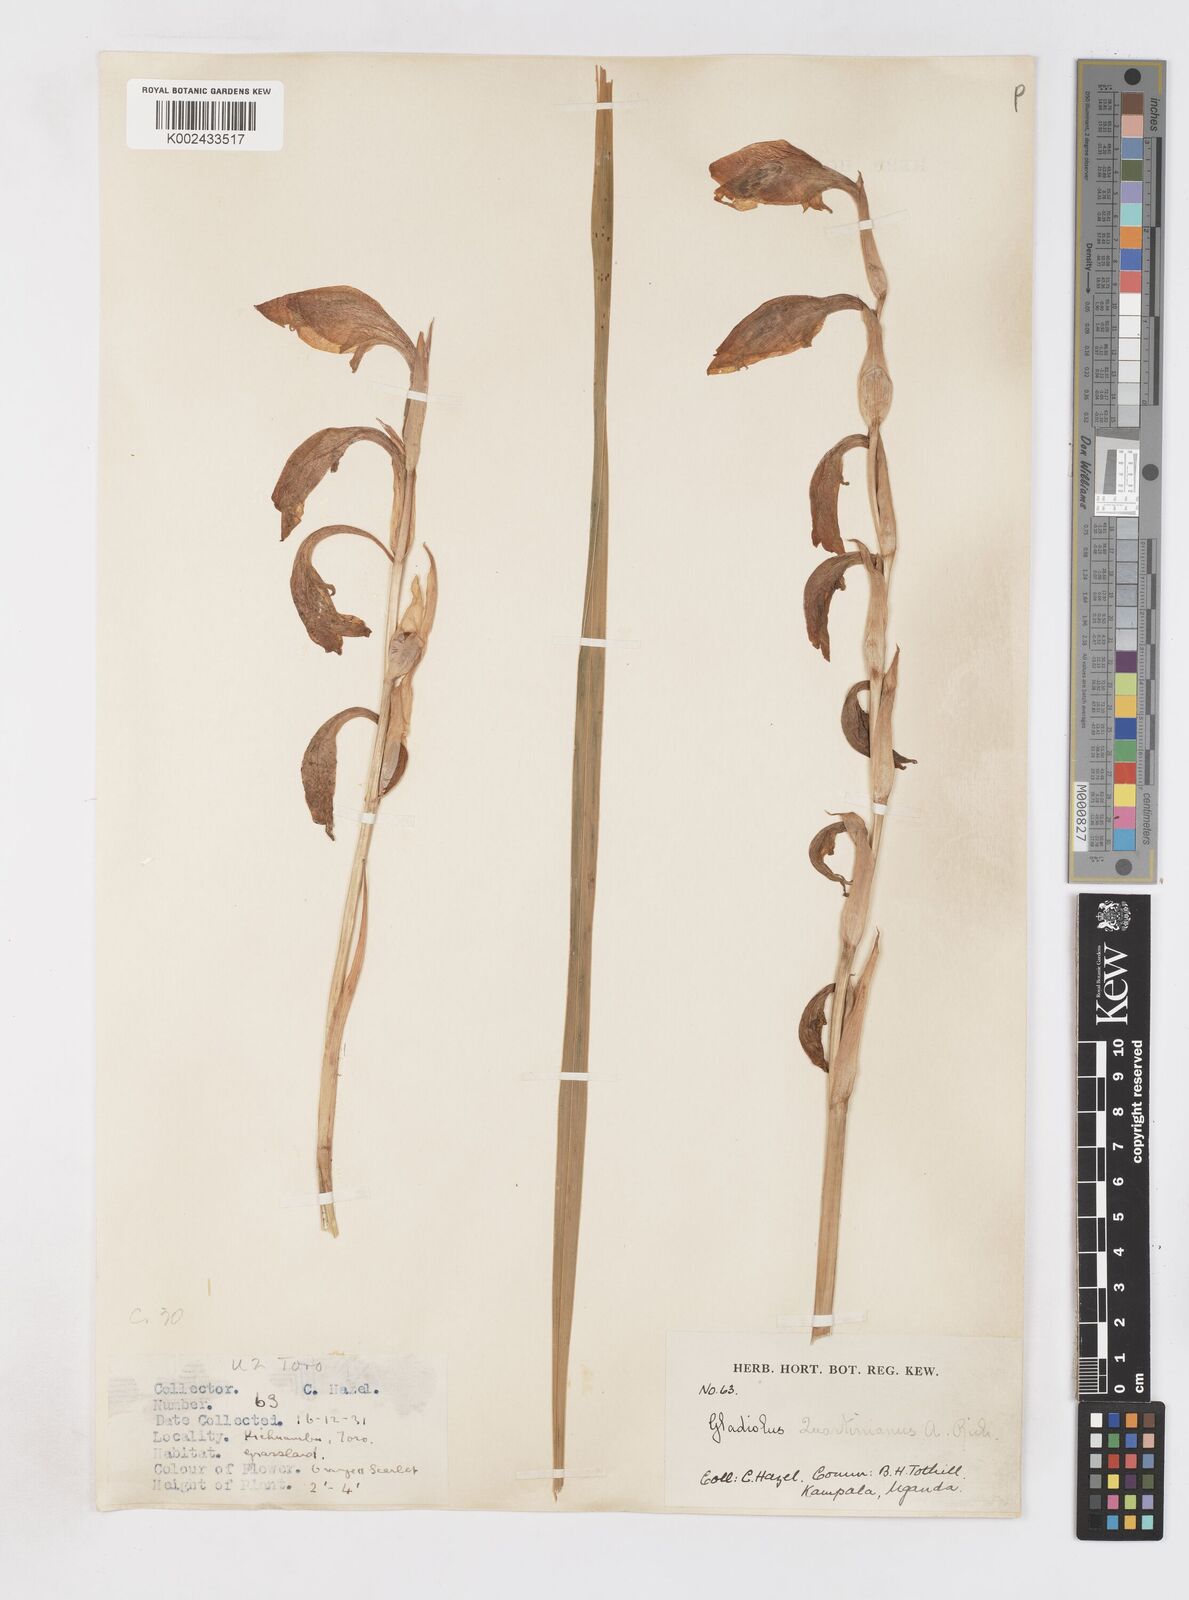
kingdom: Plantae
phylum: Tracheophyta
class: Liliopsida
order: Asparagales
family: Iridaceae
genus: Gladiolus
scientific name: Gladiolus dalenii
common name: Cornflag
